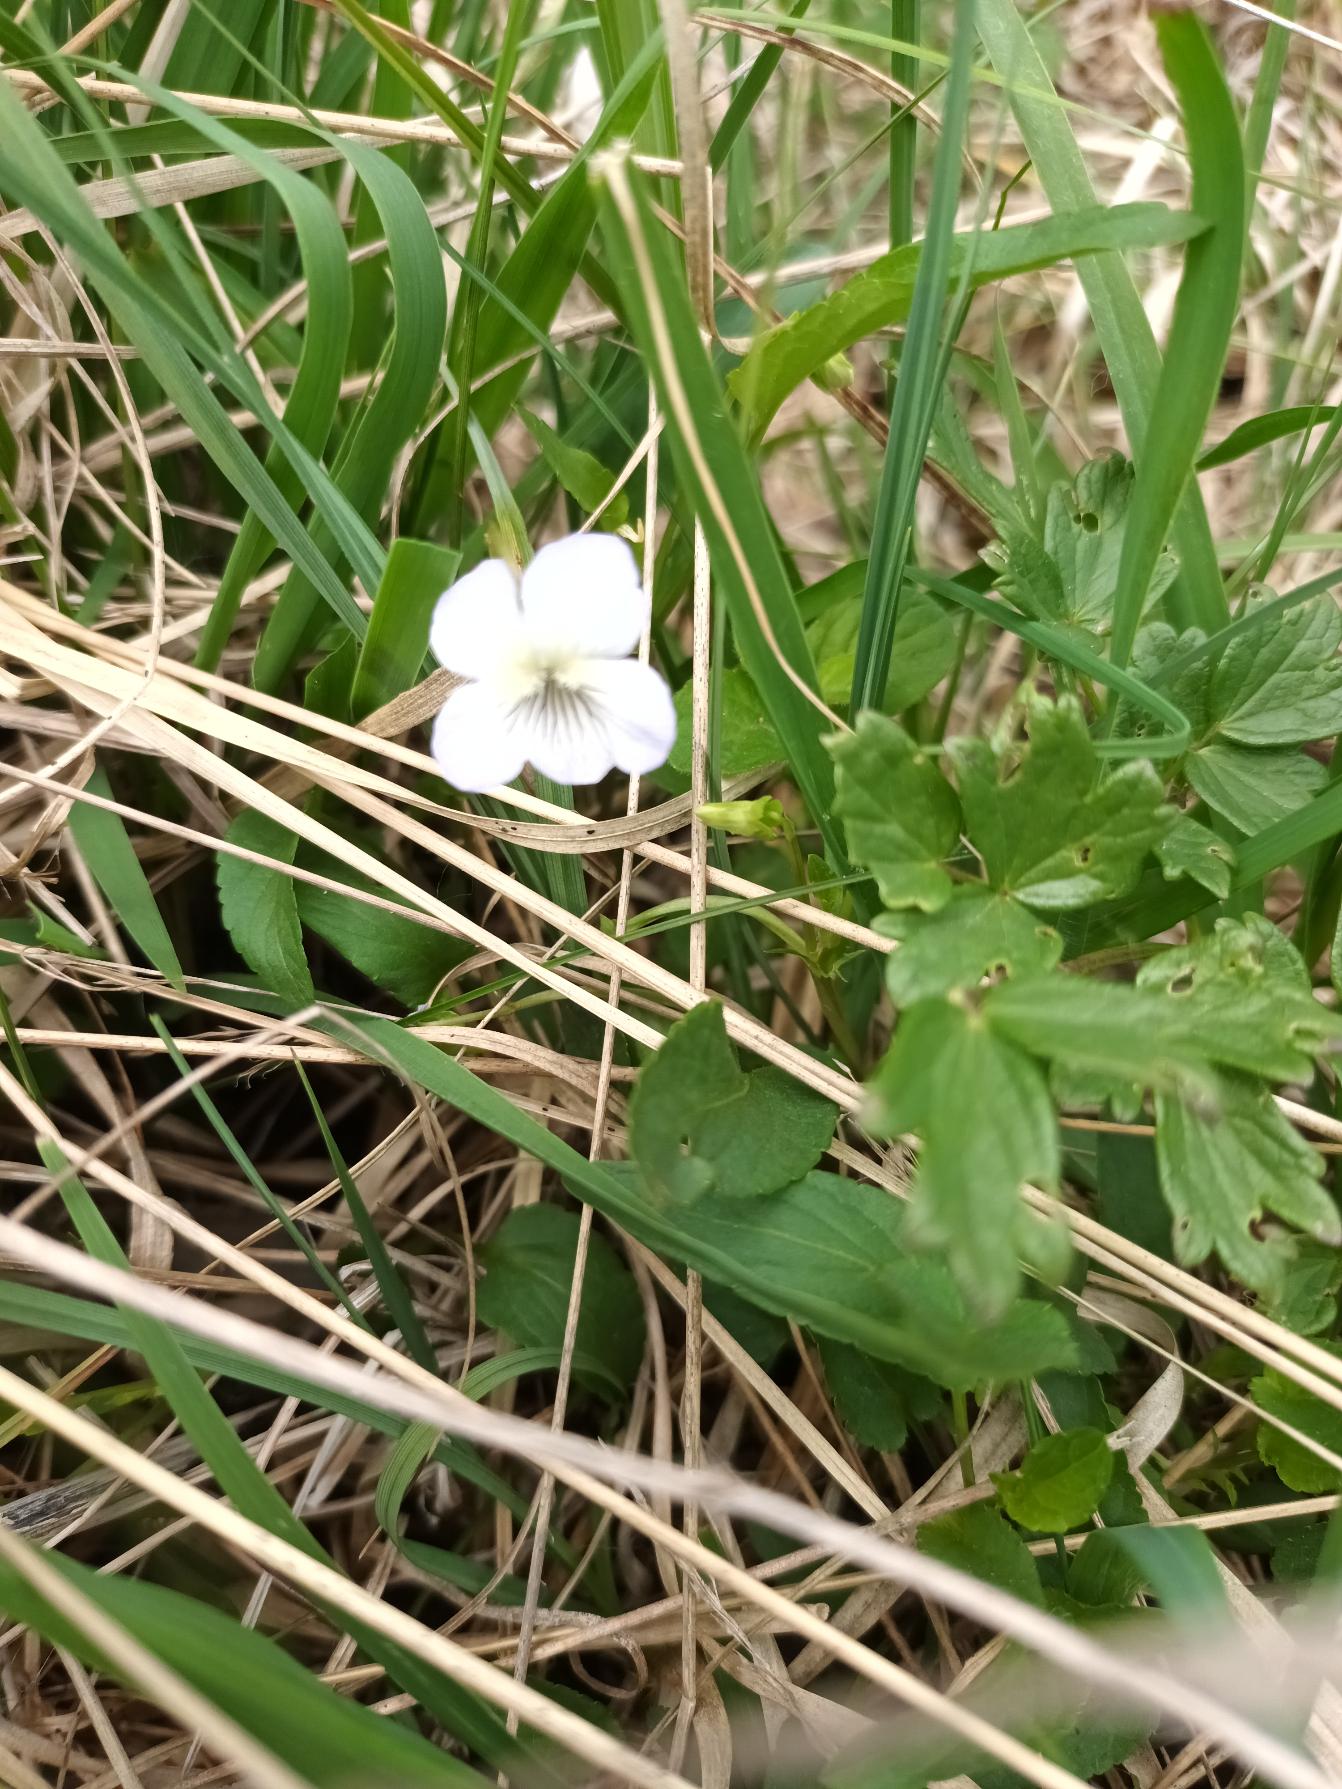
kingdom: Plantae
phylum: Tracheophyta
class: Magnoliopsida
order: Malpighiales
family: Violaceae
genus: Viola
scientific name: Viola stagnina
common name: Rank viol
